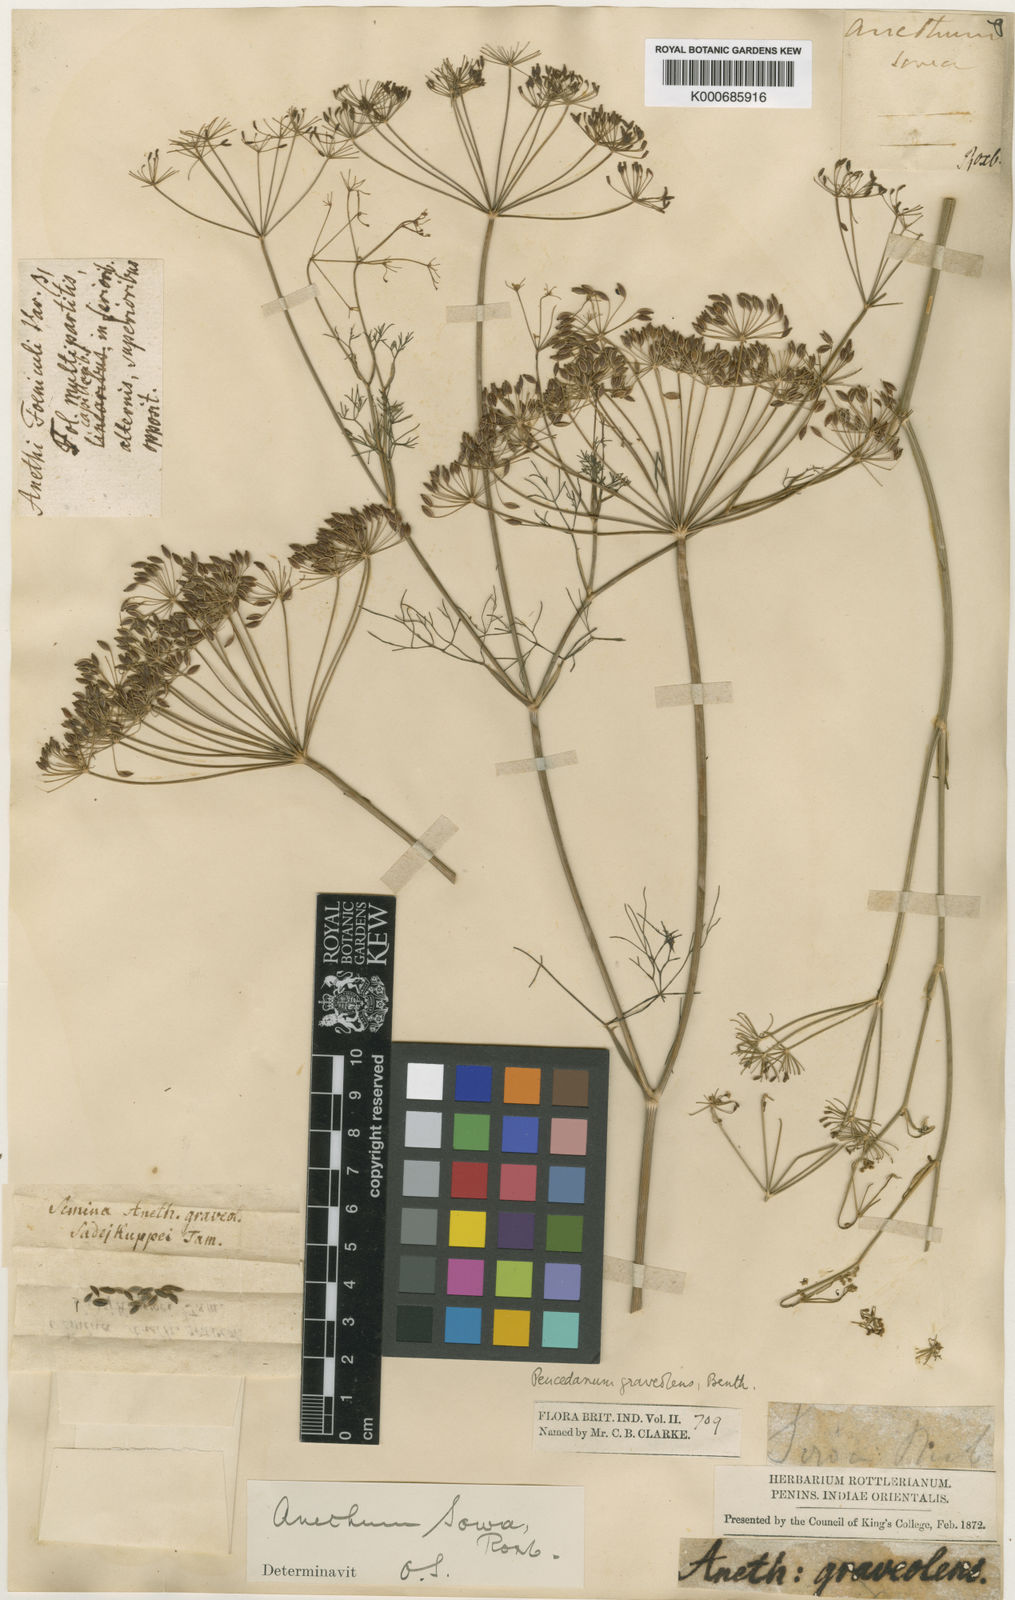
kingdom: Plantae
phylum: Tracheophyta
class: Magnoliopsida
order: Apiales
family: Apiaceae
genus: Anethum
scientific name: Anethum graveolens
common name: Dill
